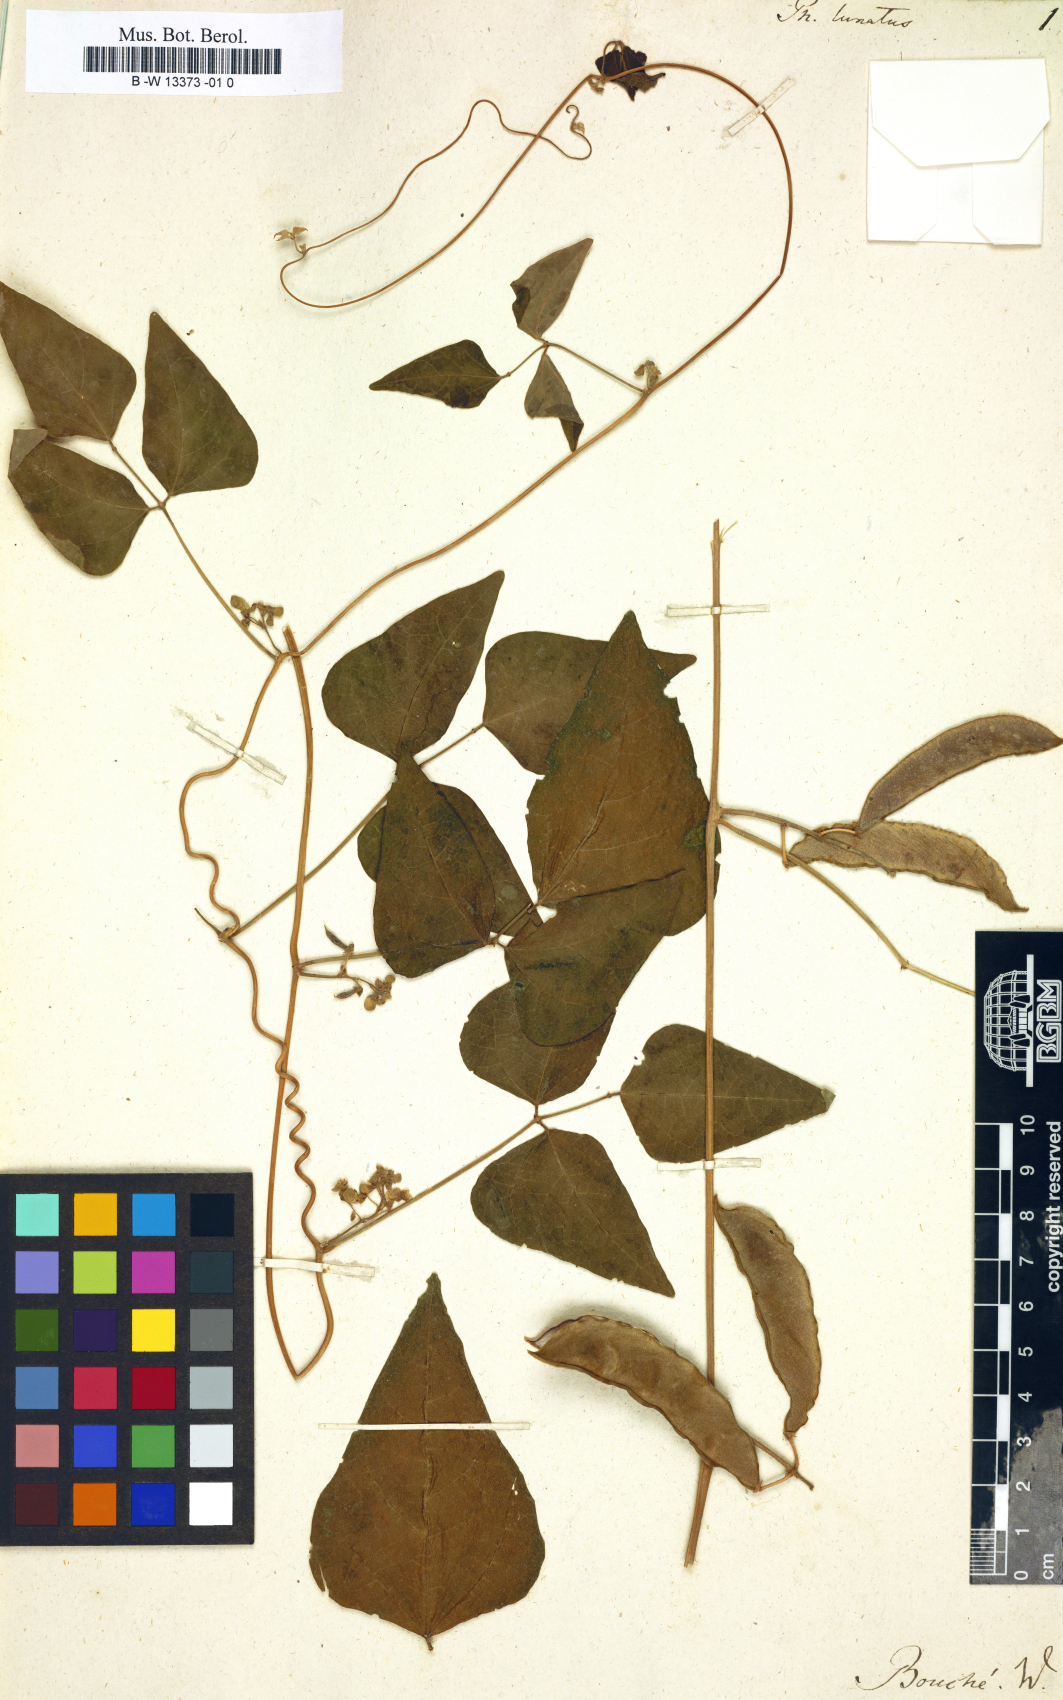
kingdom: Plantae
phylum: Tracheophyta
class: Magnoliopsida
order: Fabales
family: Fabaceae
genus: Phaseolus
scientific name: Phaseolus lunatus
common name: Sieva bean
